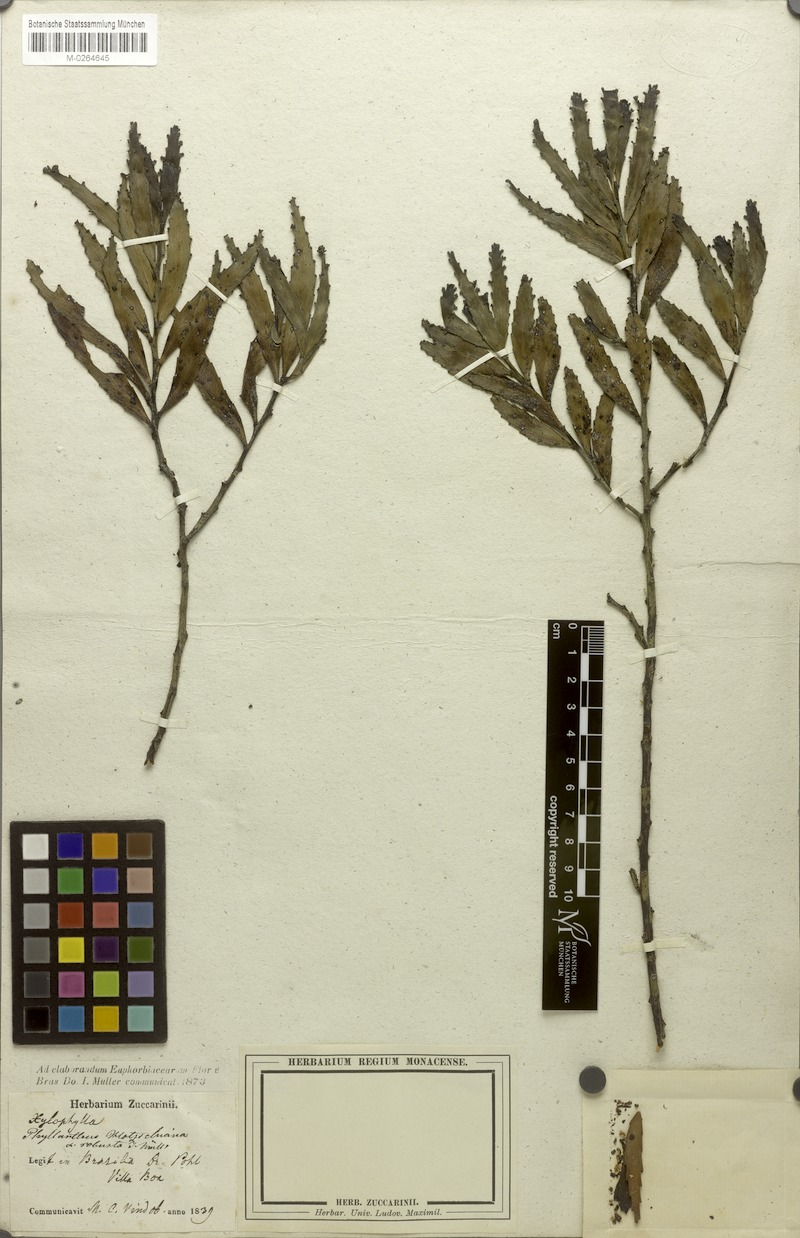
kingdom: Plantae
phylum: Tracheophyta
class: Magnoliopsida
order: Malpighiales
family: Phyllanthaceae
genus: Phyllanthus
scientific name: Phyllanthus robustus
